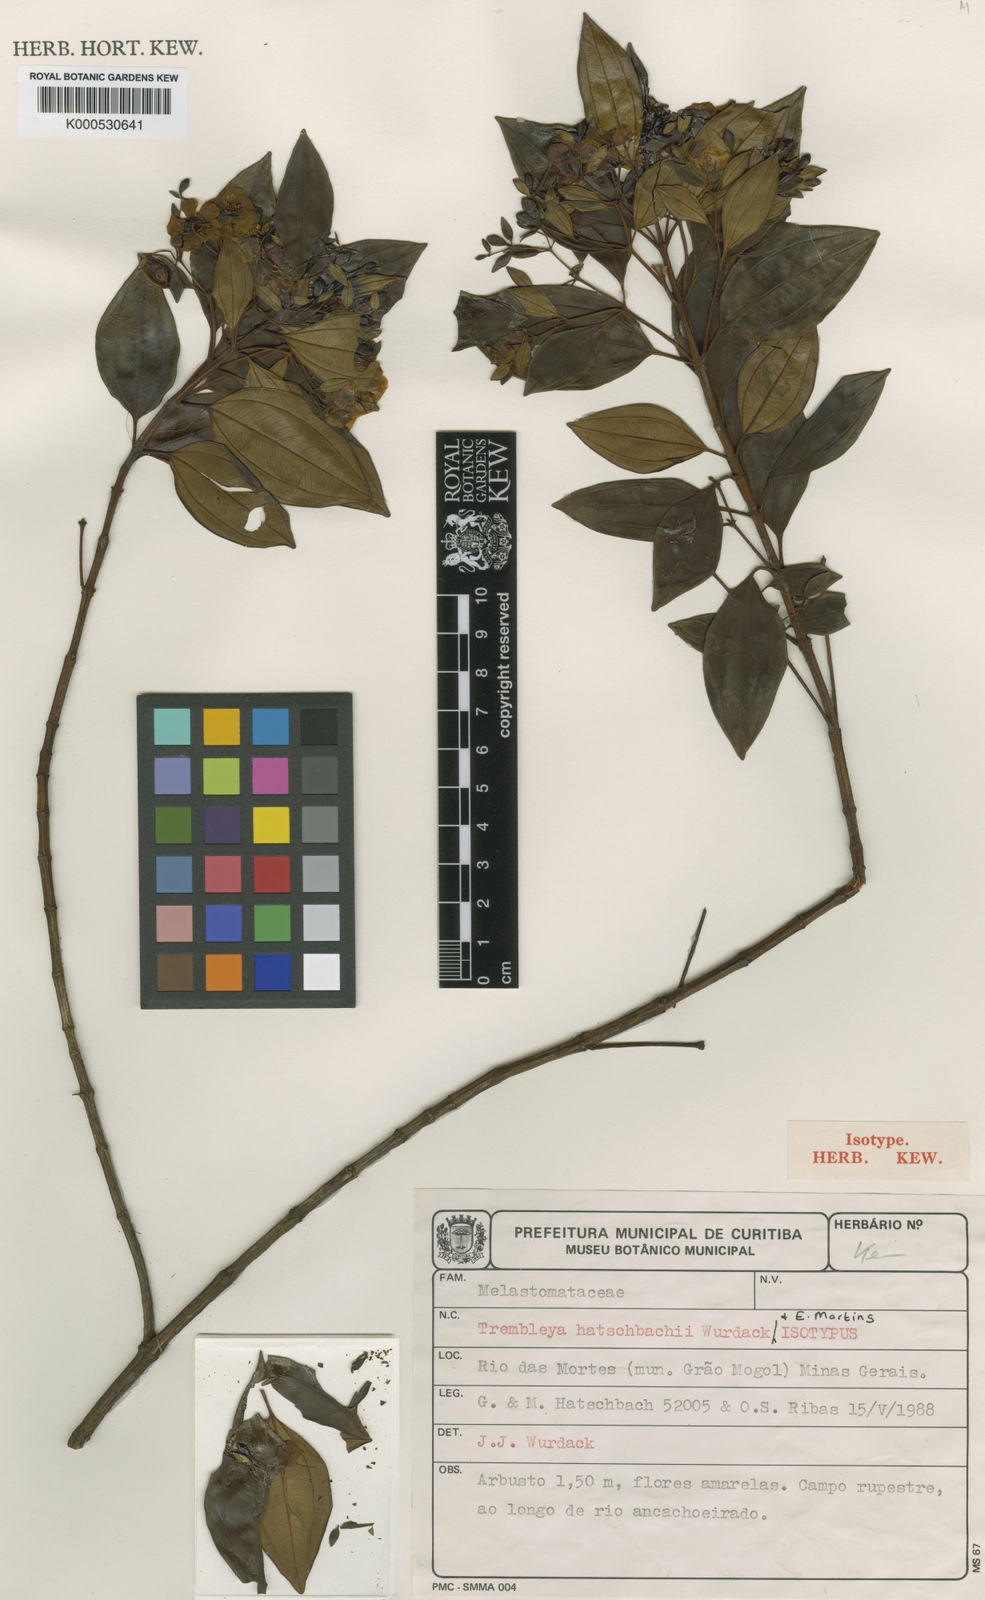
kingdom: Plantae
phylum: Tracheophyta
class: Magnoliopsida
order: Myrtales
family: Melastomataceae
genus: Microlicia
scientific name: Microlicia flaviflora
